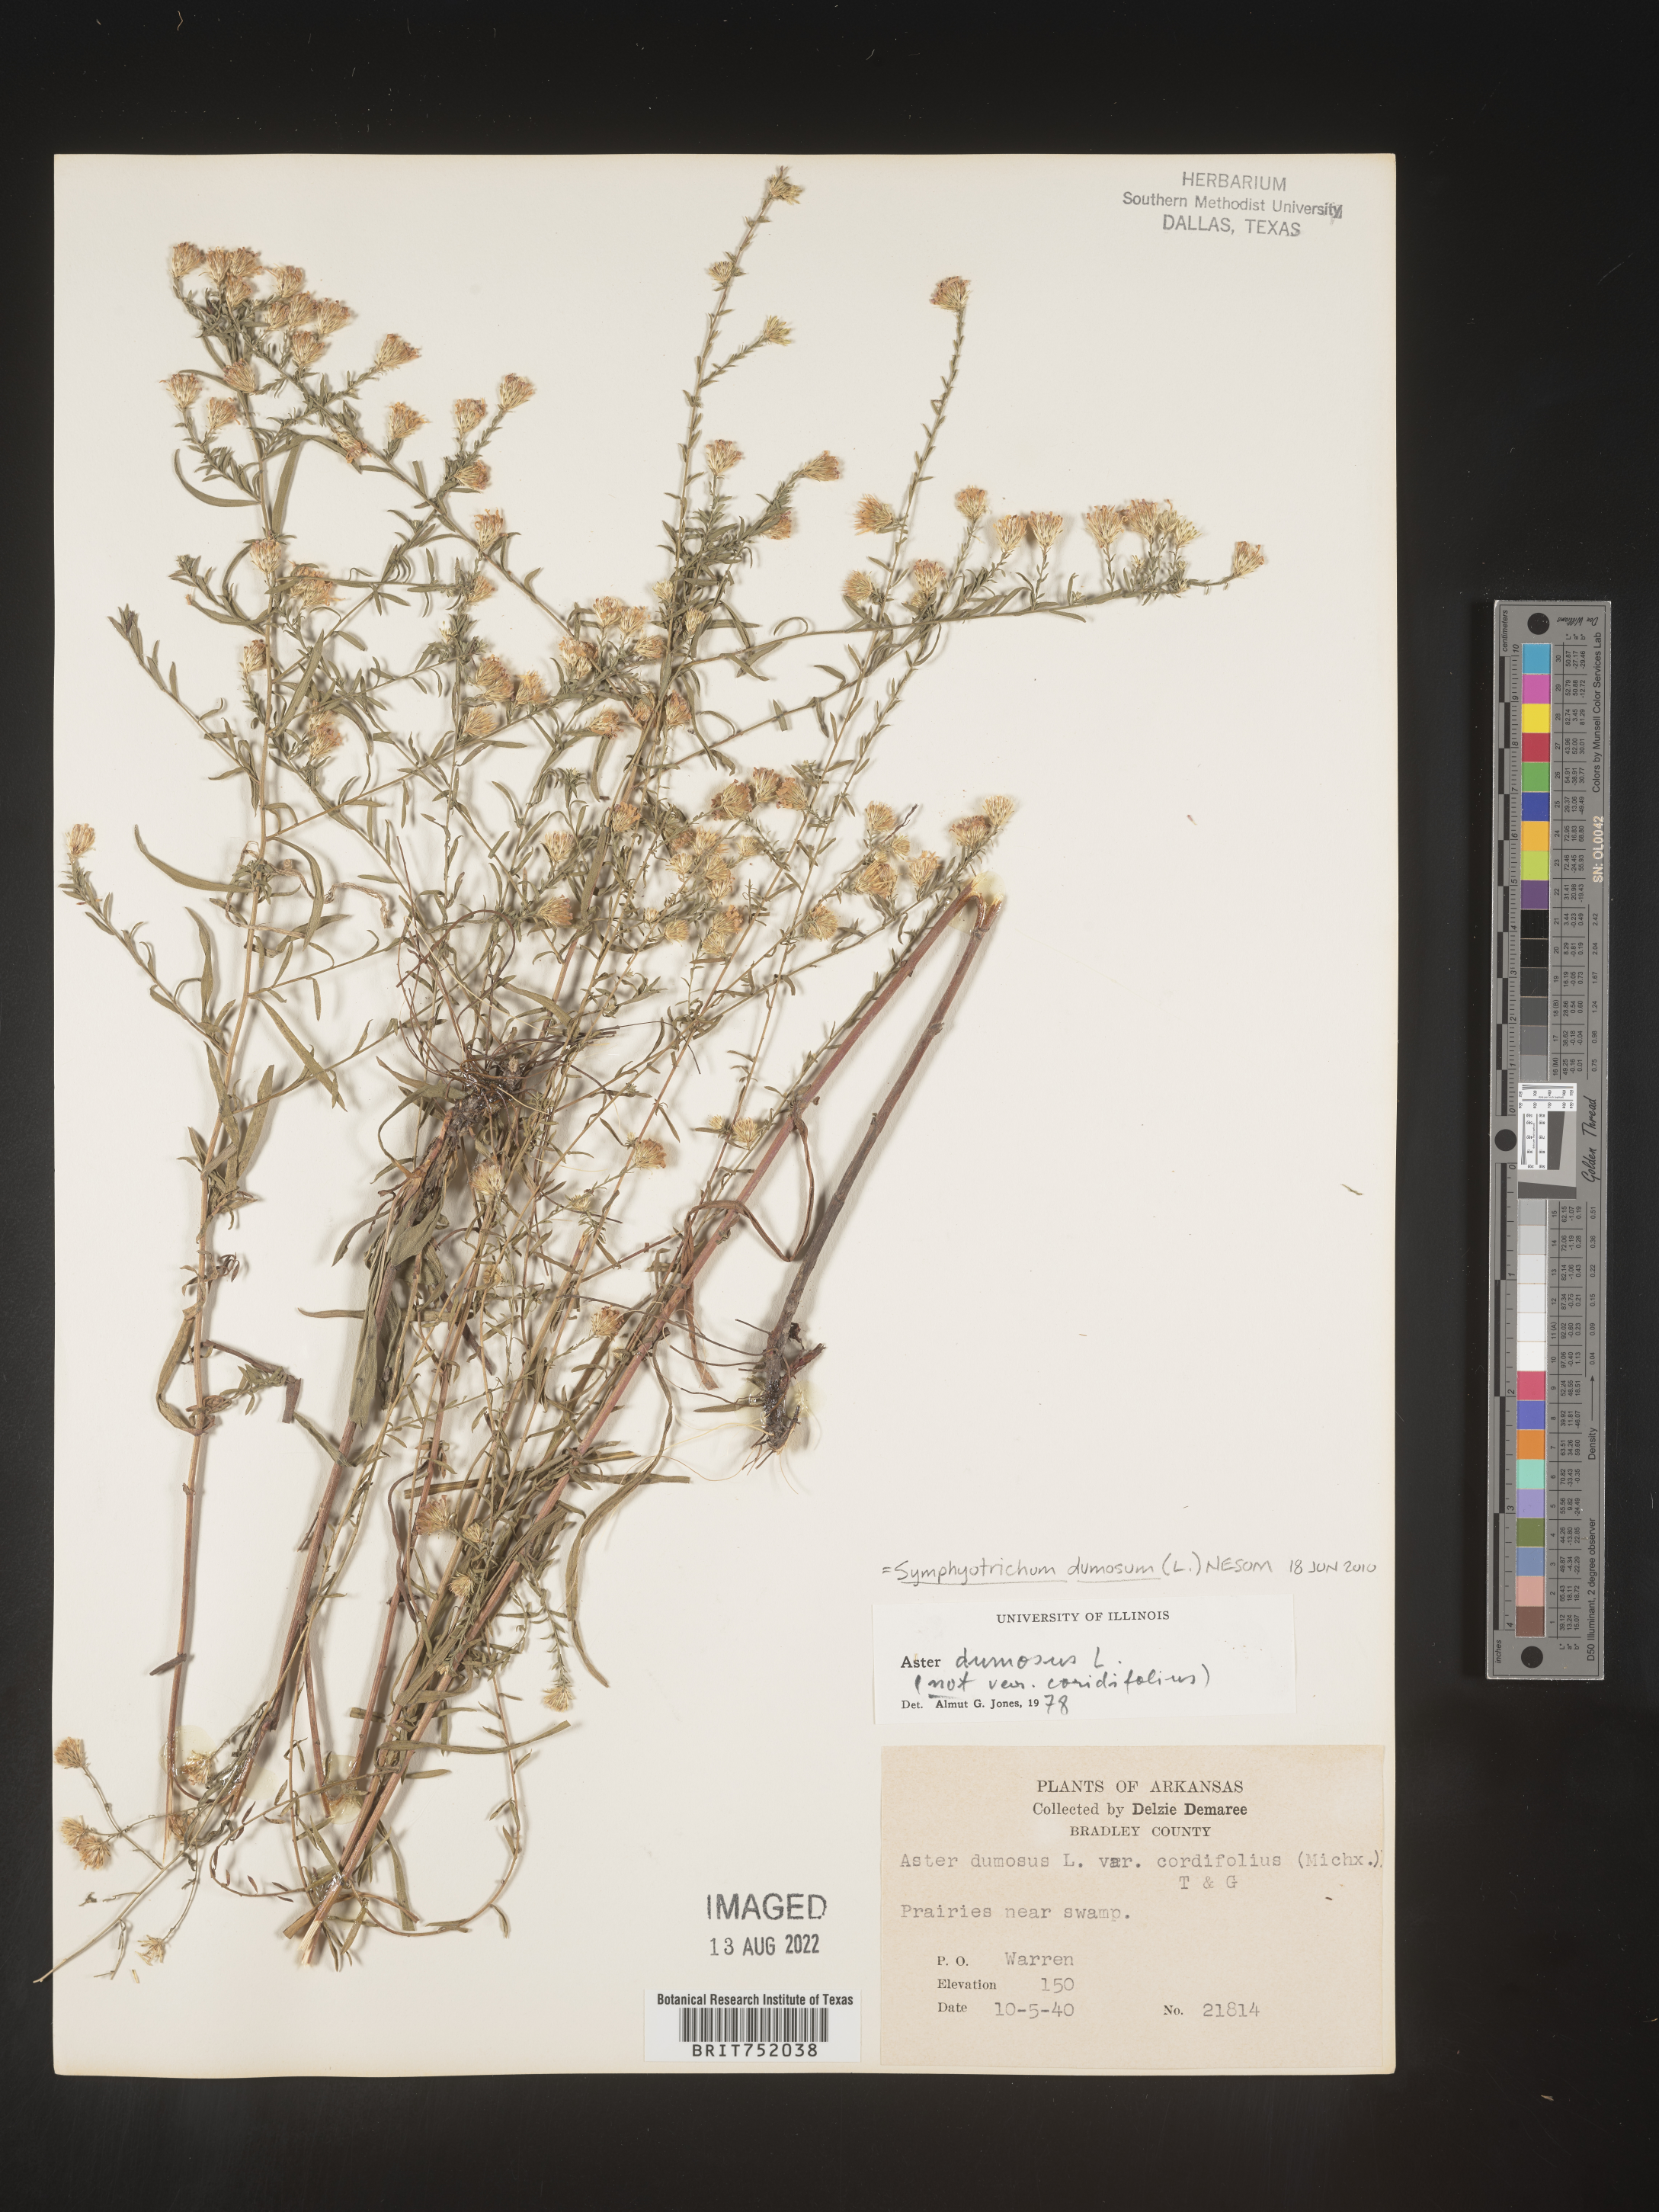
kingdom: Plantae
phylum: Tracheophyta
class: Magnoliopsida
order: Asterales
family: Asteraceae
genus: Symphyotrichum
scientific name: Symphyotrichum dumosum
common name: Bushy aster
